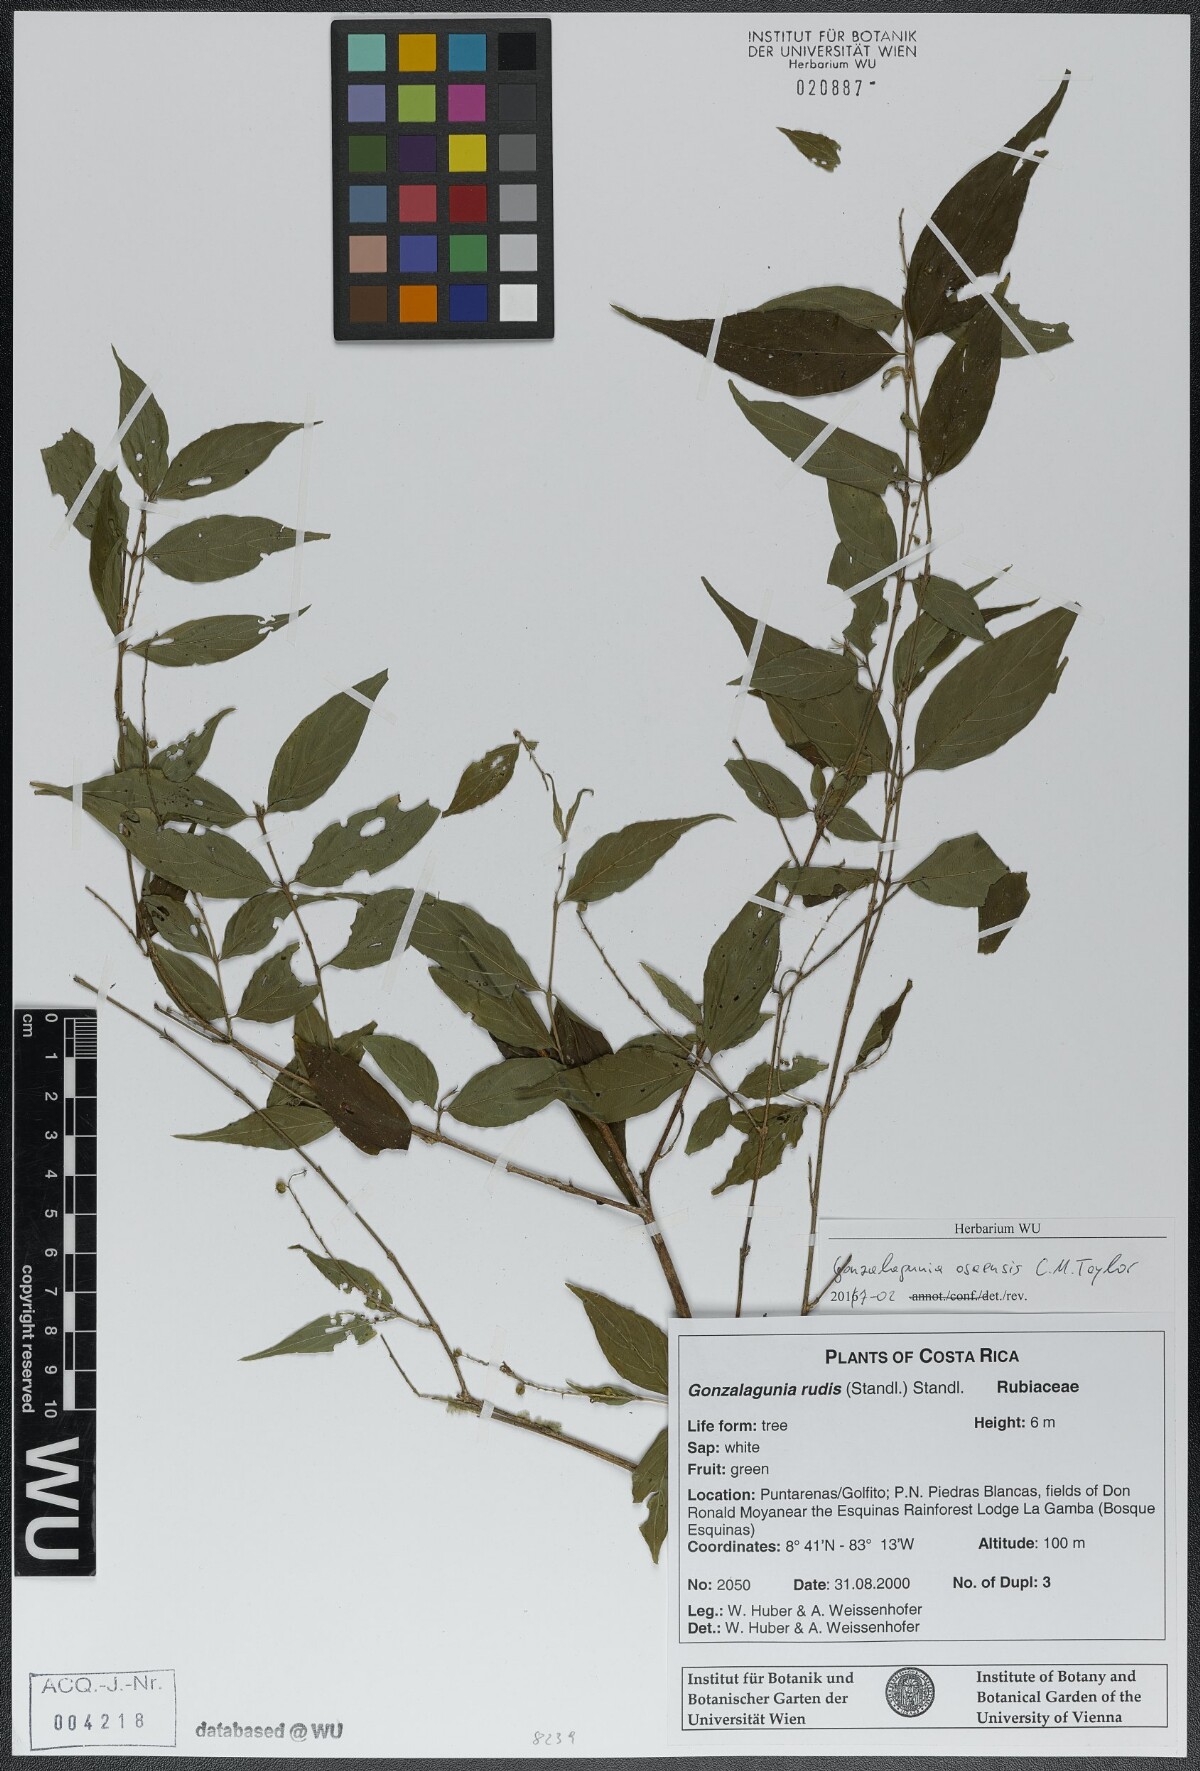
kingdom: Plantae
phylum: Tracheophyta
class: Magnoliopsida
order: Gentianales
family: Rubiaceae
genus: Gonzalagunia
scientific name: Gonzalagunia osaensis
